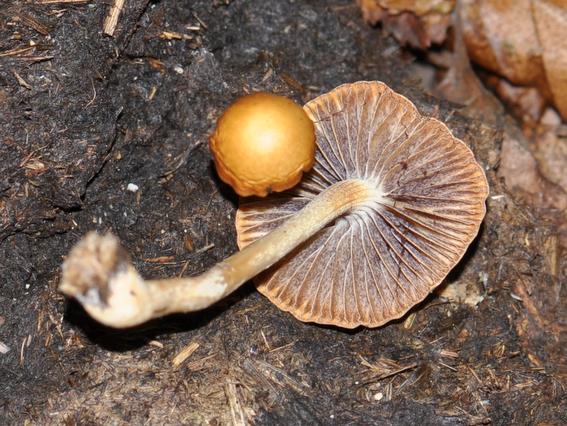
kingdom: Fungi
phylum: Basidiomycota
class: Agaricomycetes
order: Agaricales
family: Bolbitiaceae
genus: Panaeolus
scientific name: Panaeolus papilionaceus
